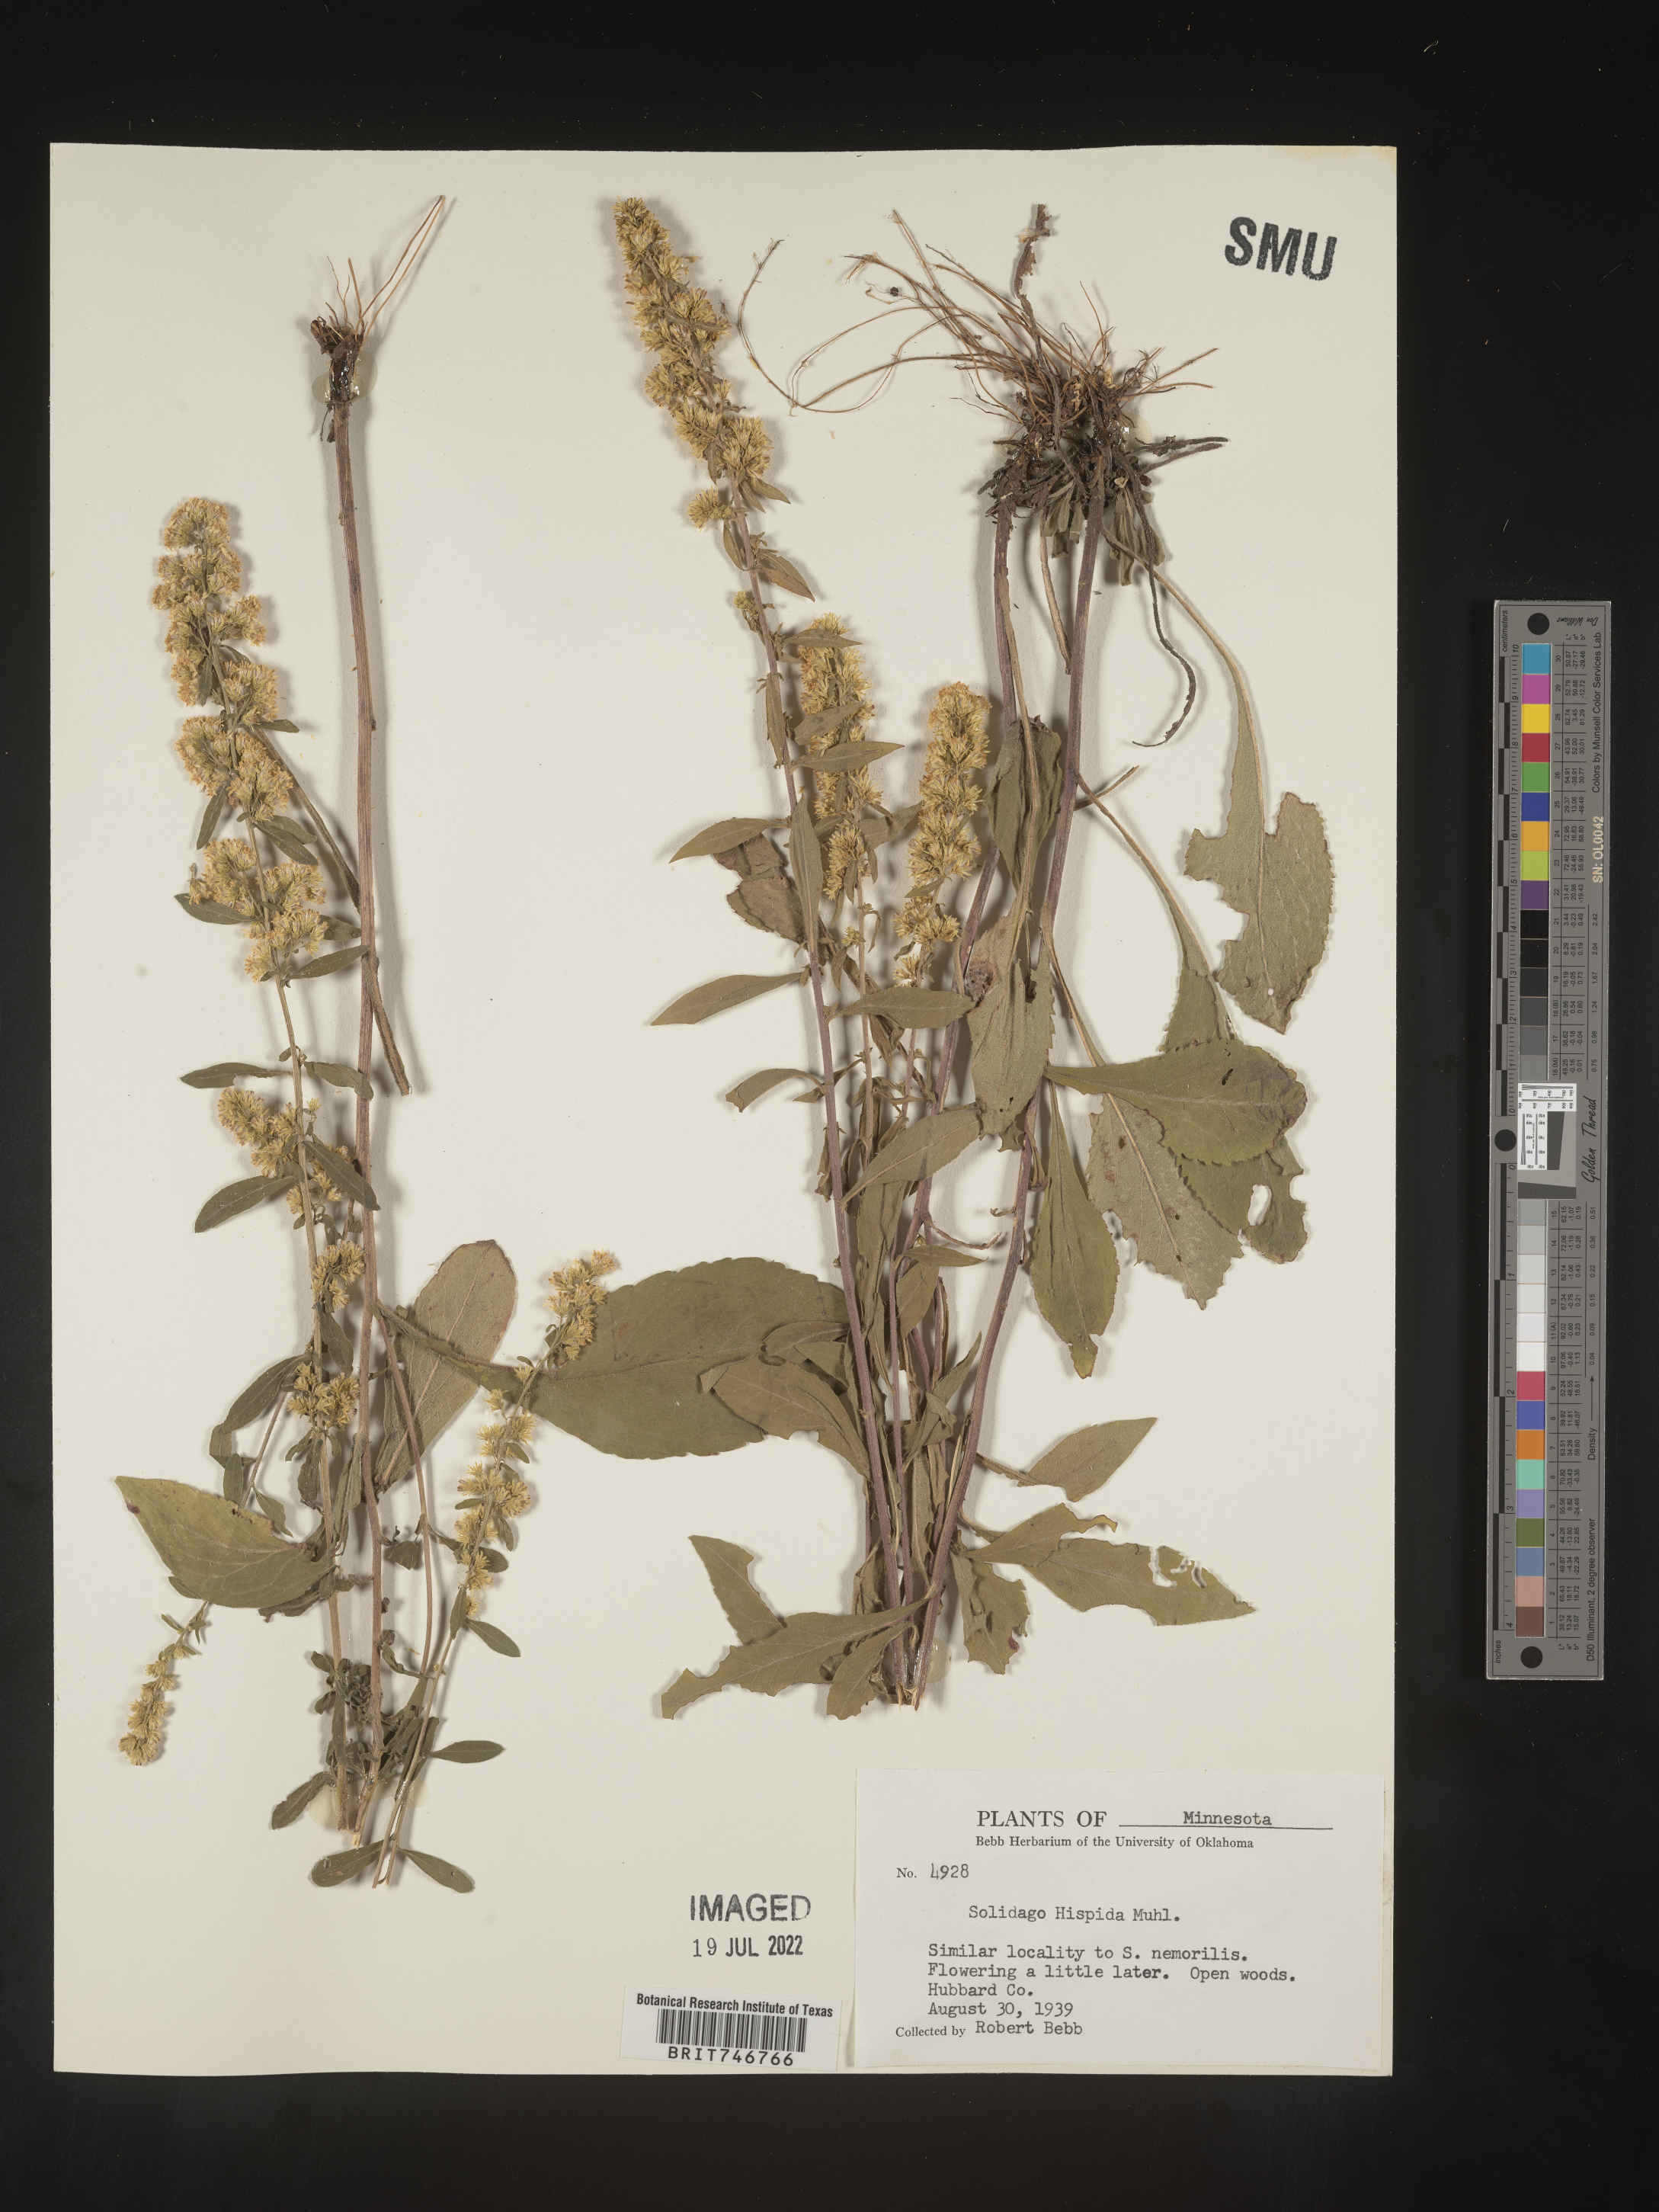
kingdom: Plantae
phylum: Tracheophyta
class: Magnoliopsida
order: Asterales
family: Asteraceae
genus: Solidago
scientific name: Solidago hispida
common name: Hairy goldenrod
